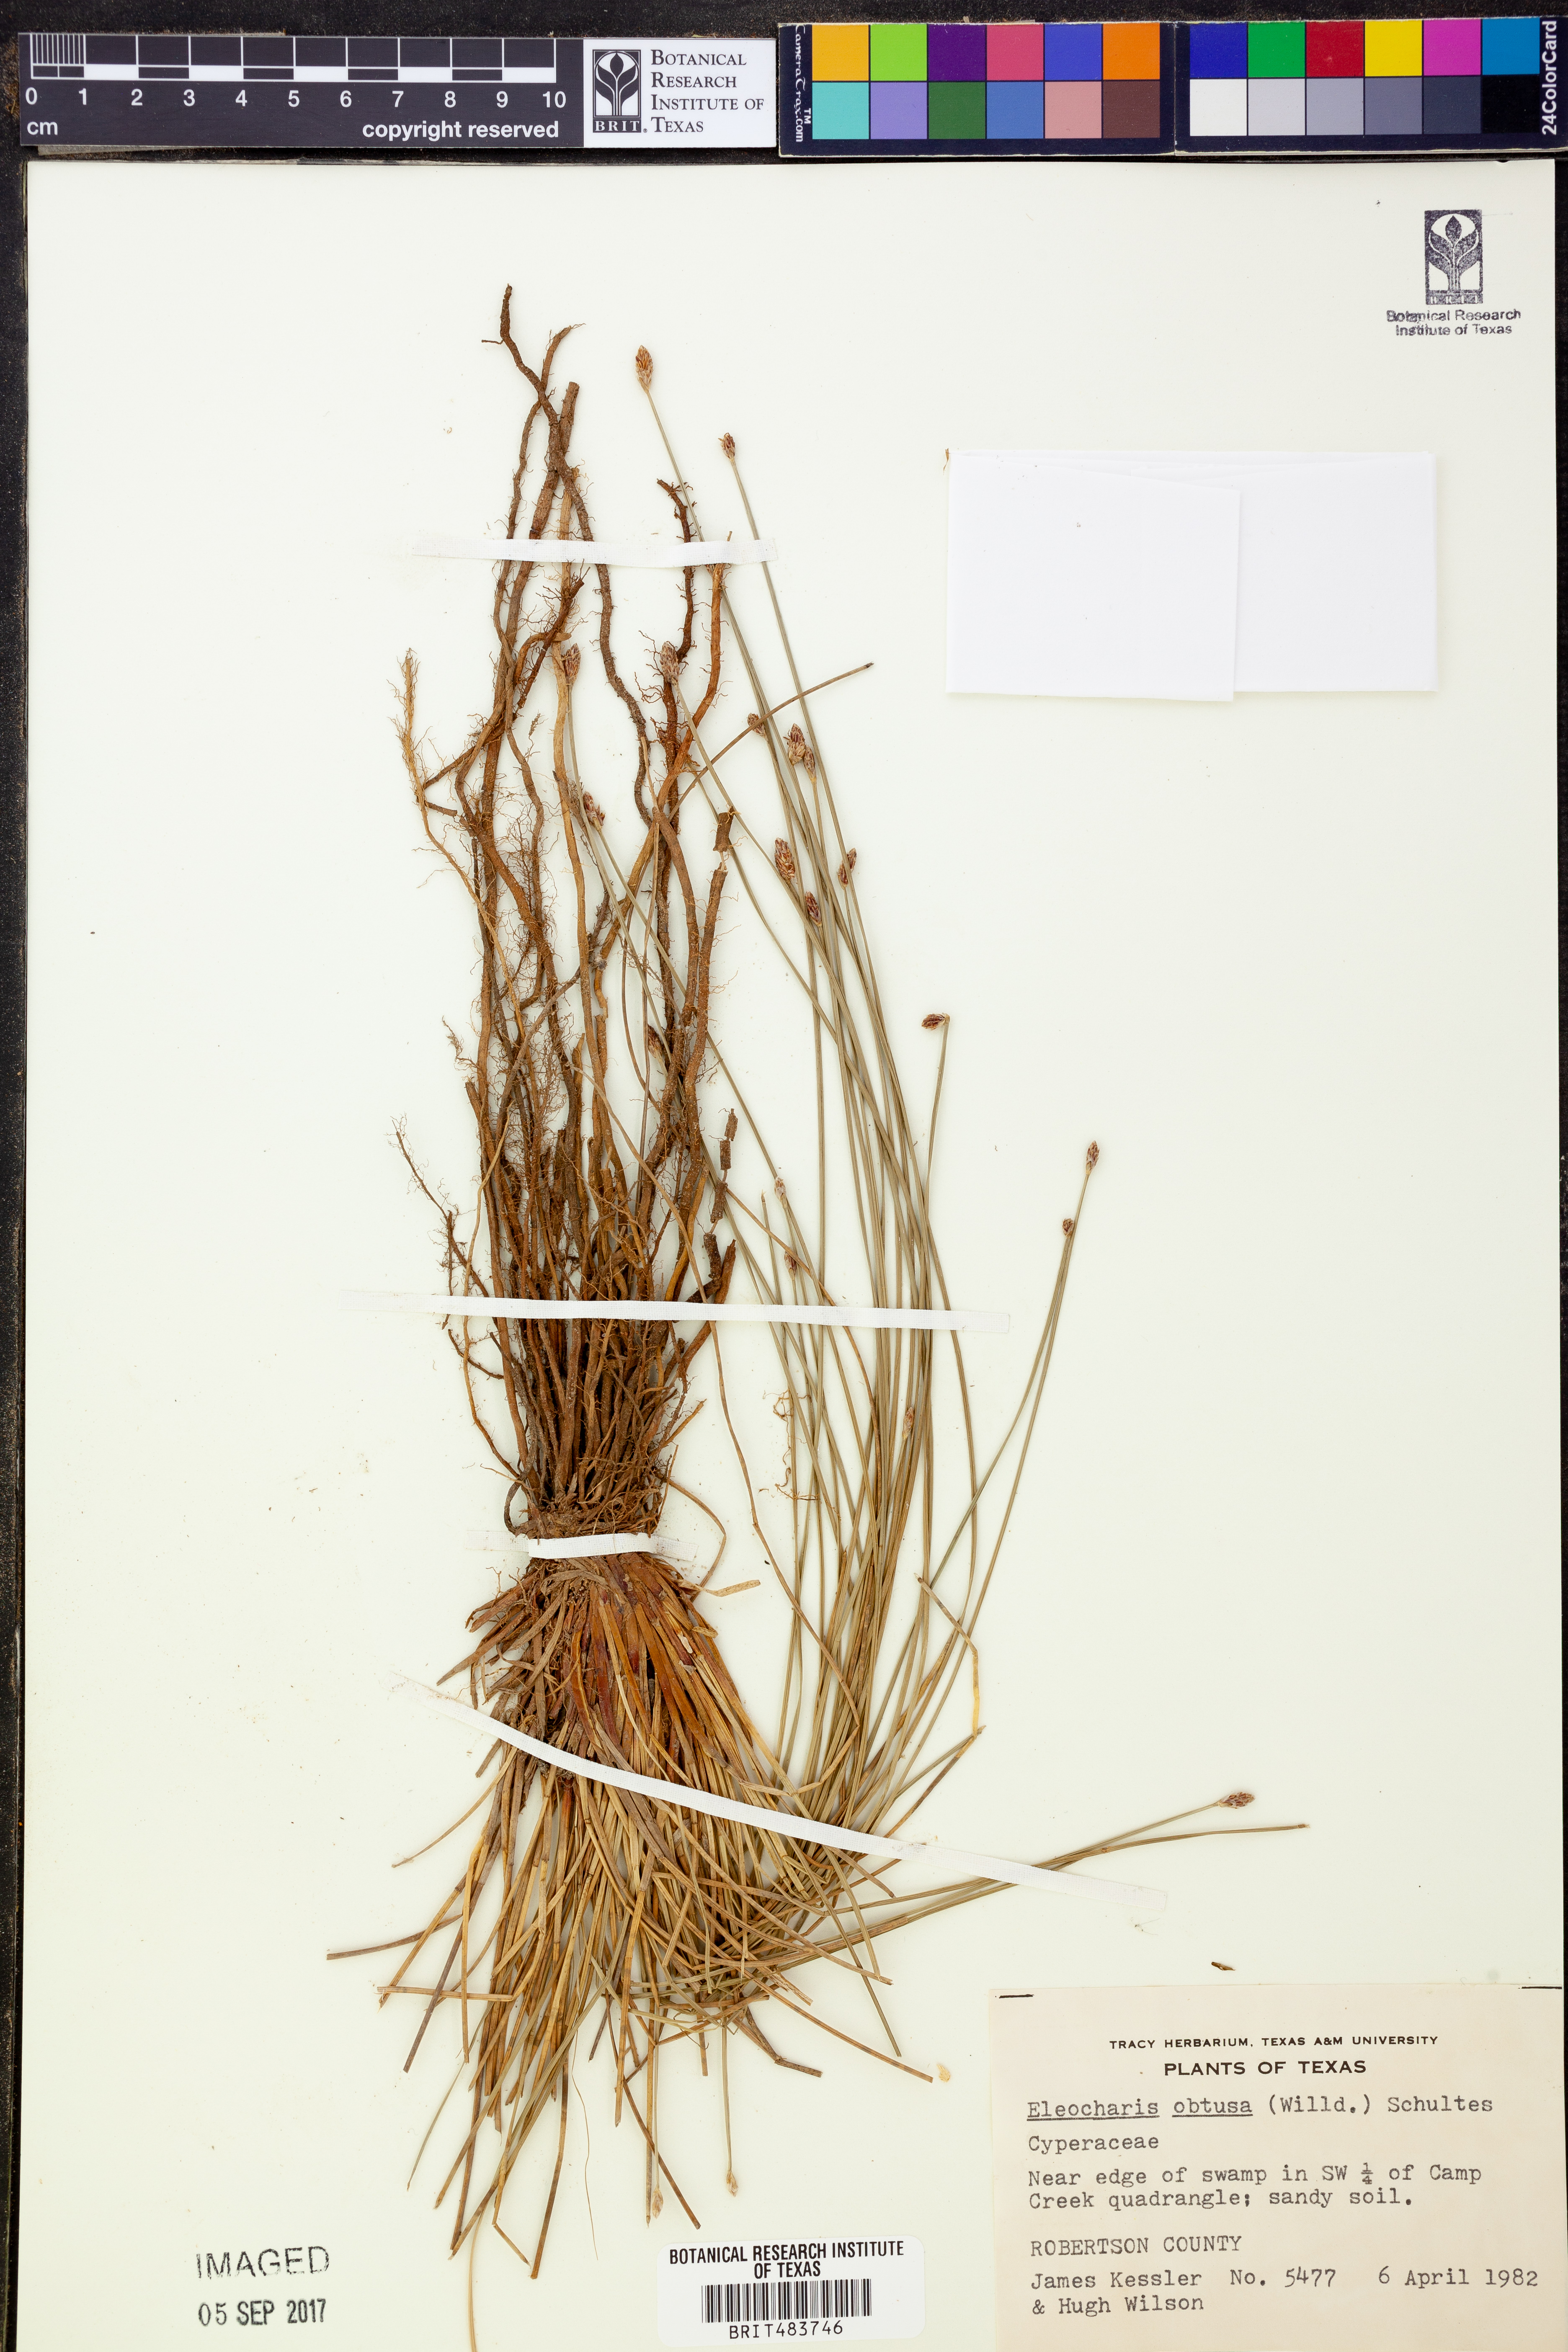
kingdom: Plantae
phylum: Tracheophyta
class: Liliopsida
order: Poales
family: Cyperaceae
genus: Eleocharis
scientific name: Eleocharis obtusa
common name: Blunt spikerush
